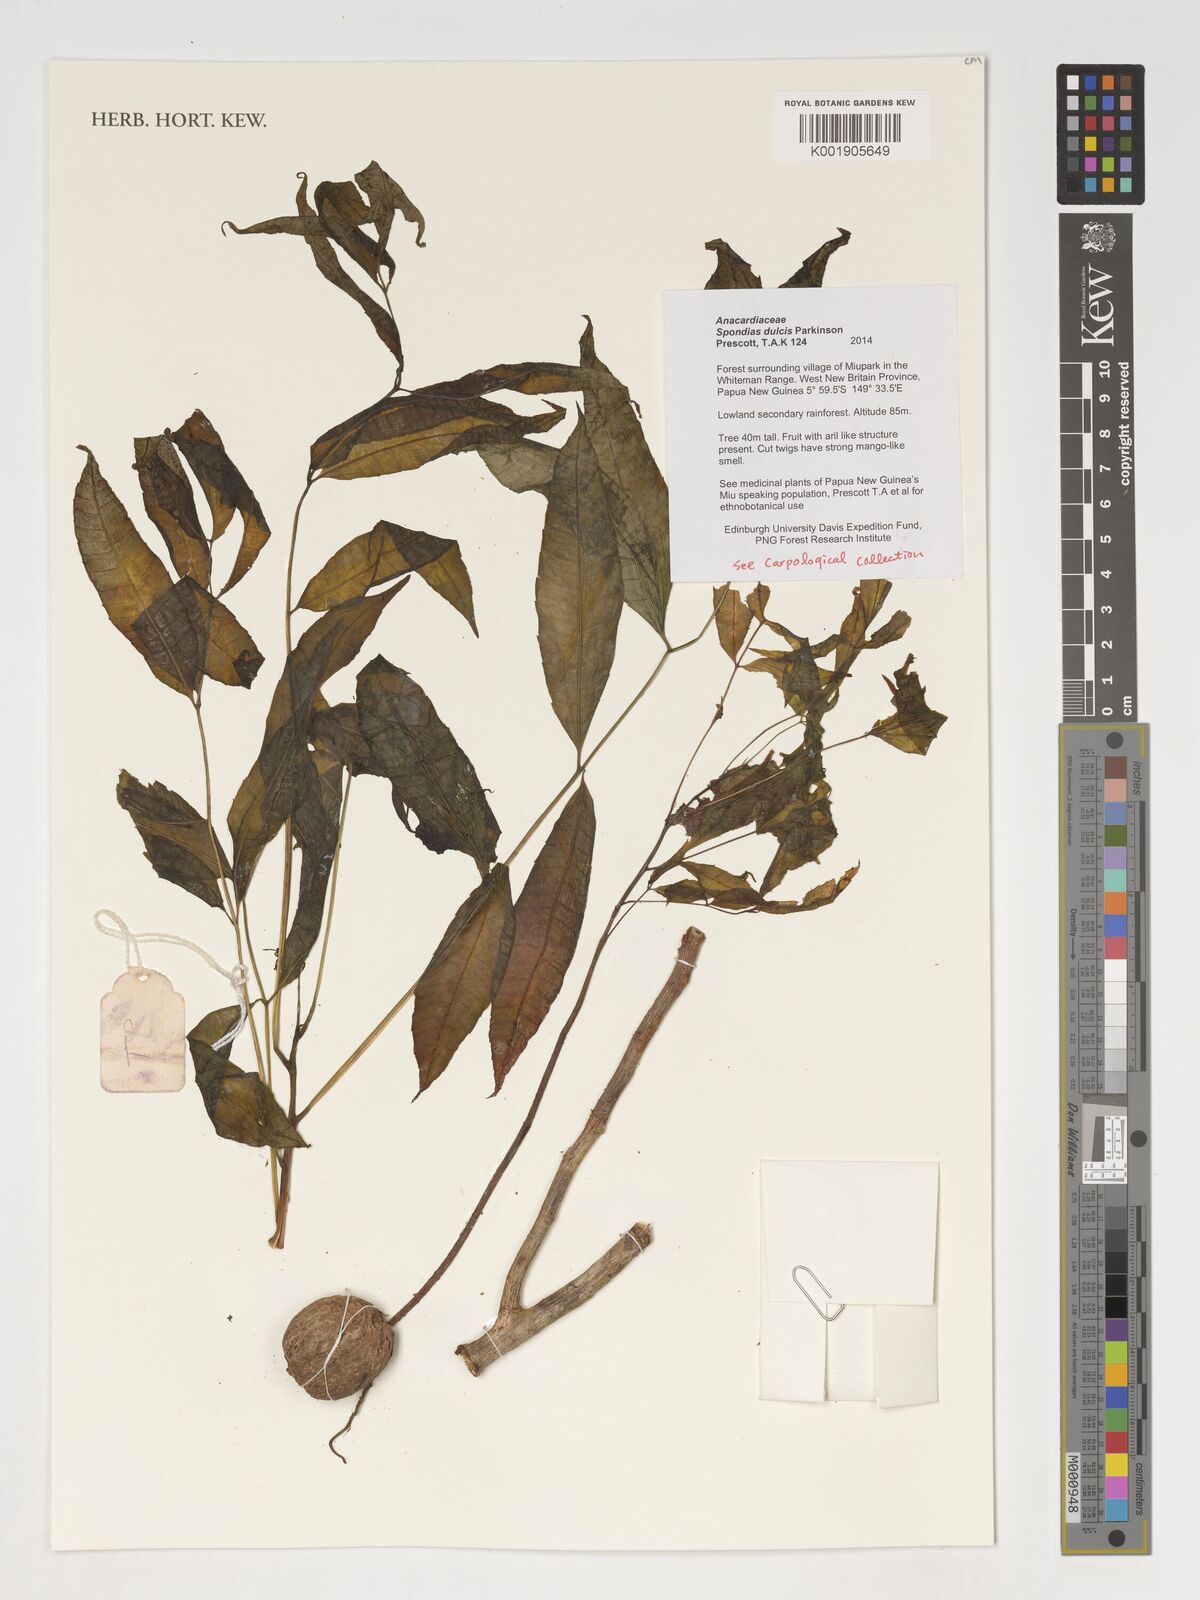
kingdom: Plantae
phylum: Tracheophyta
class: Magnoliopsida
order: Sapindales
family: Anacardiaceae
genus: Spondias
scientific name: Spondias dulcis
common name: Ambarella
